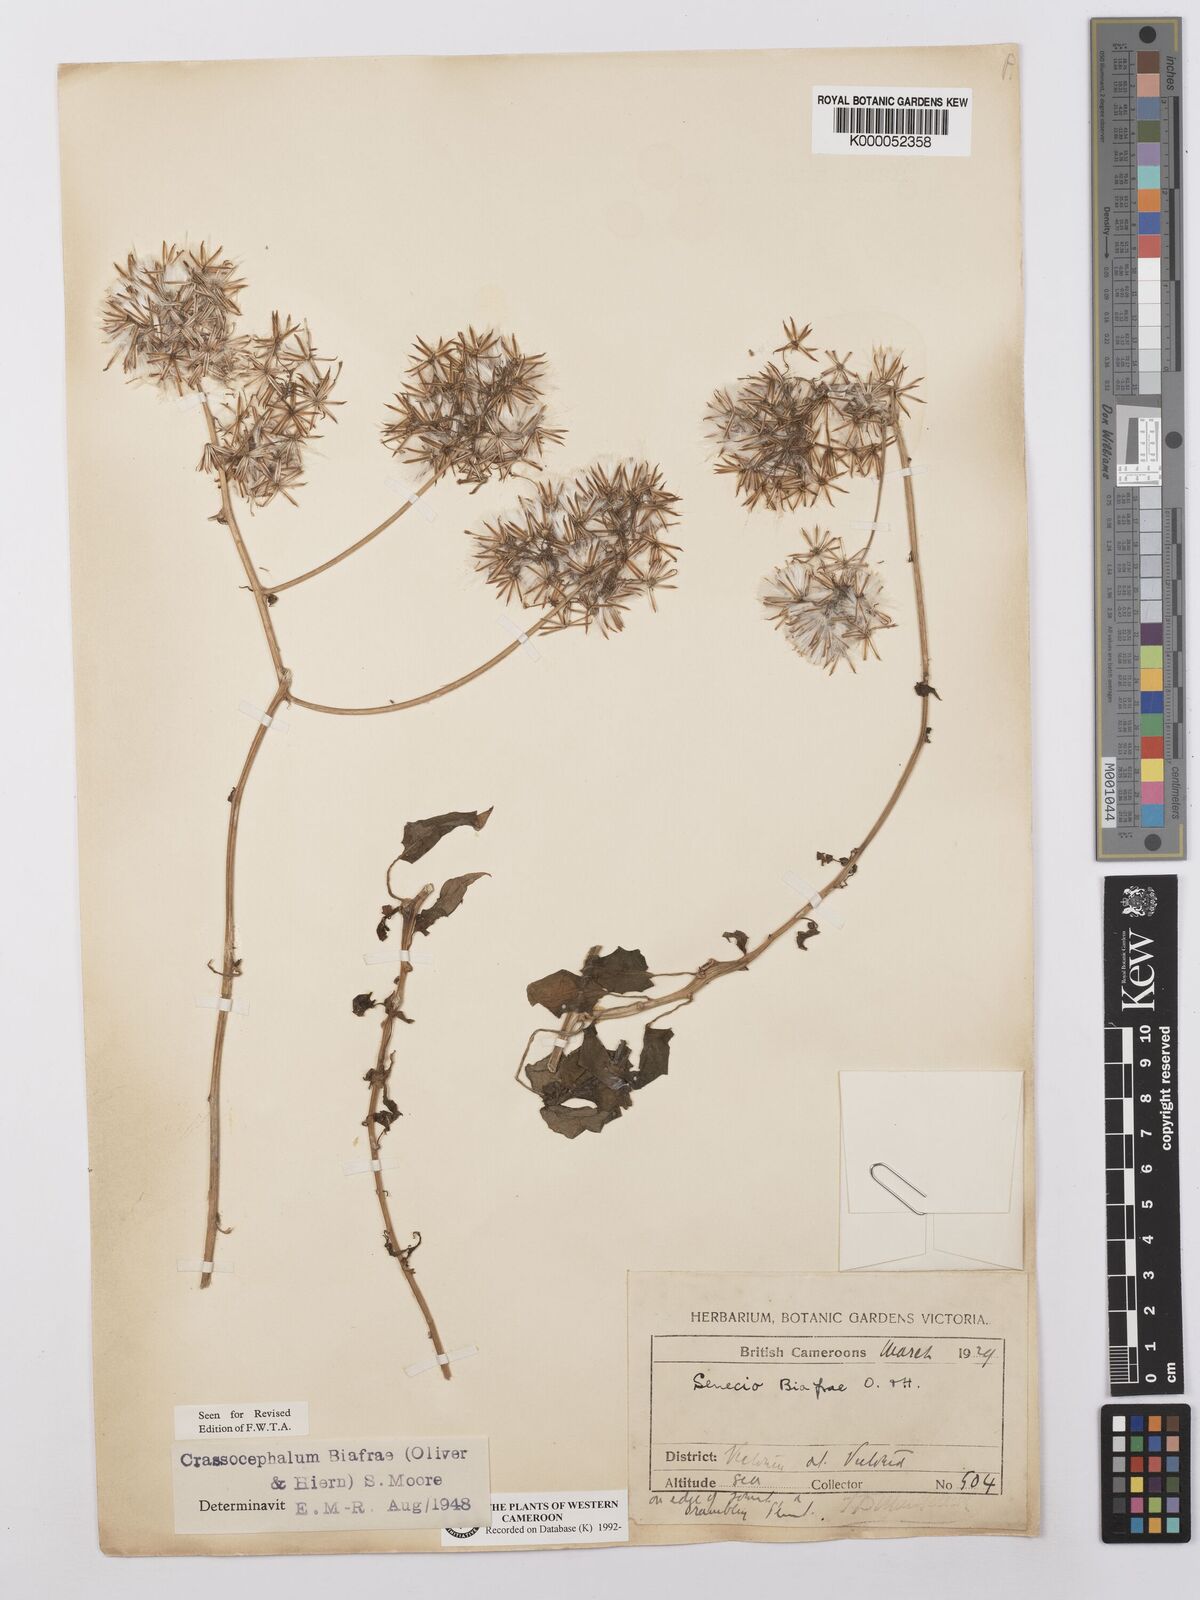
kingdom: Plantae
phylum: Tracheophyta
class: Magnoliopsida
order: Asterales
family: Asteraceae
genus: Solanecio
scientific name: Solanecio biafrae
